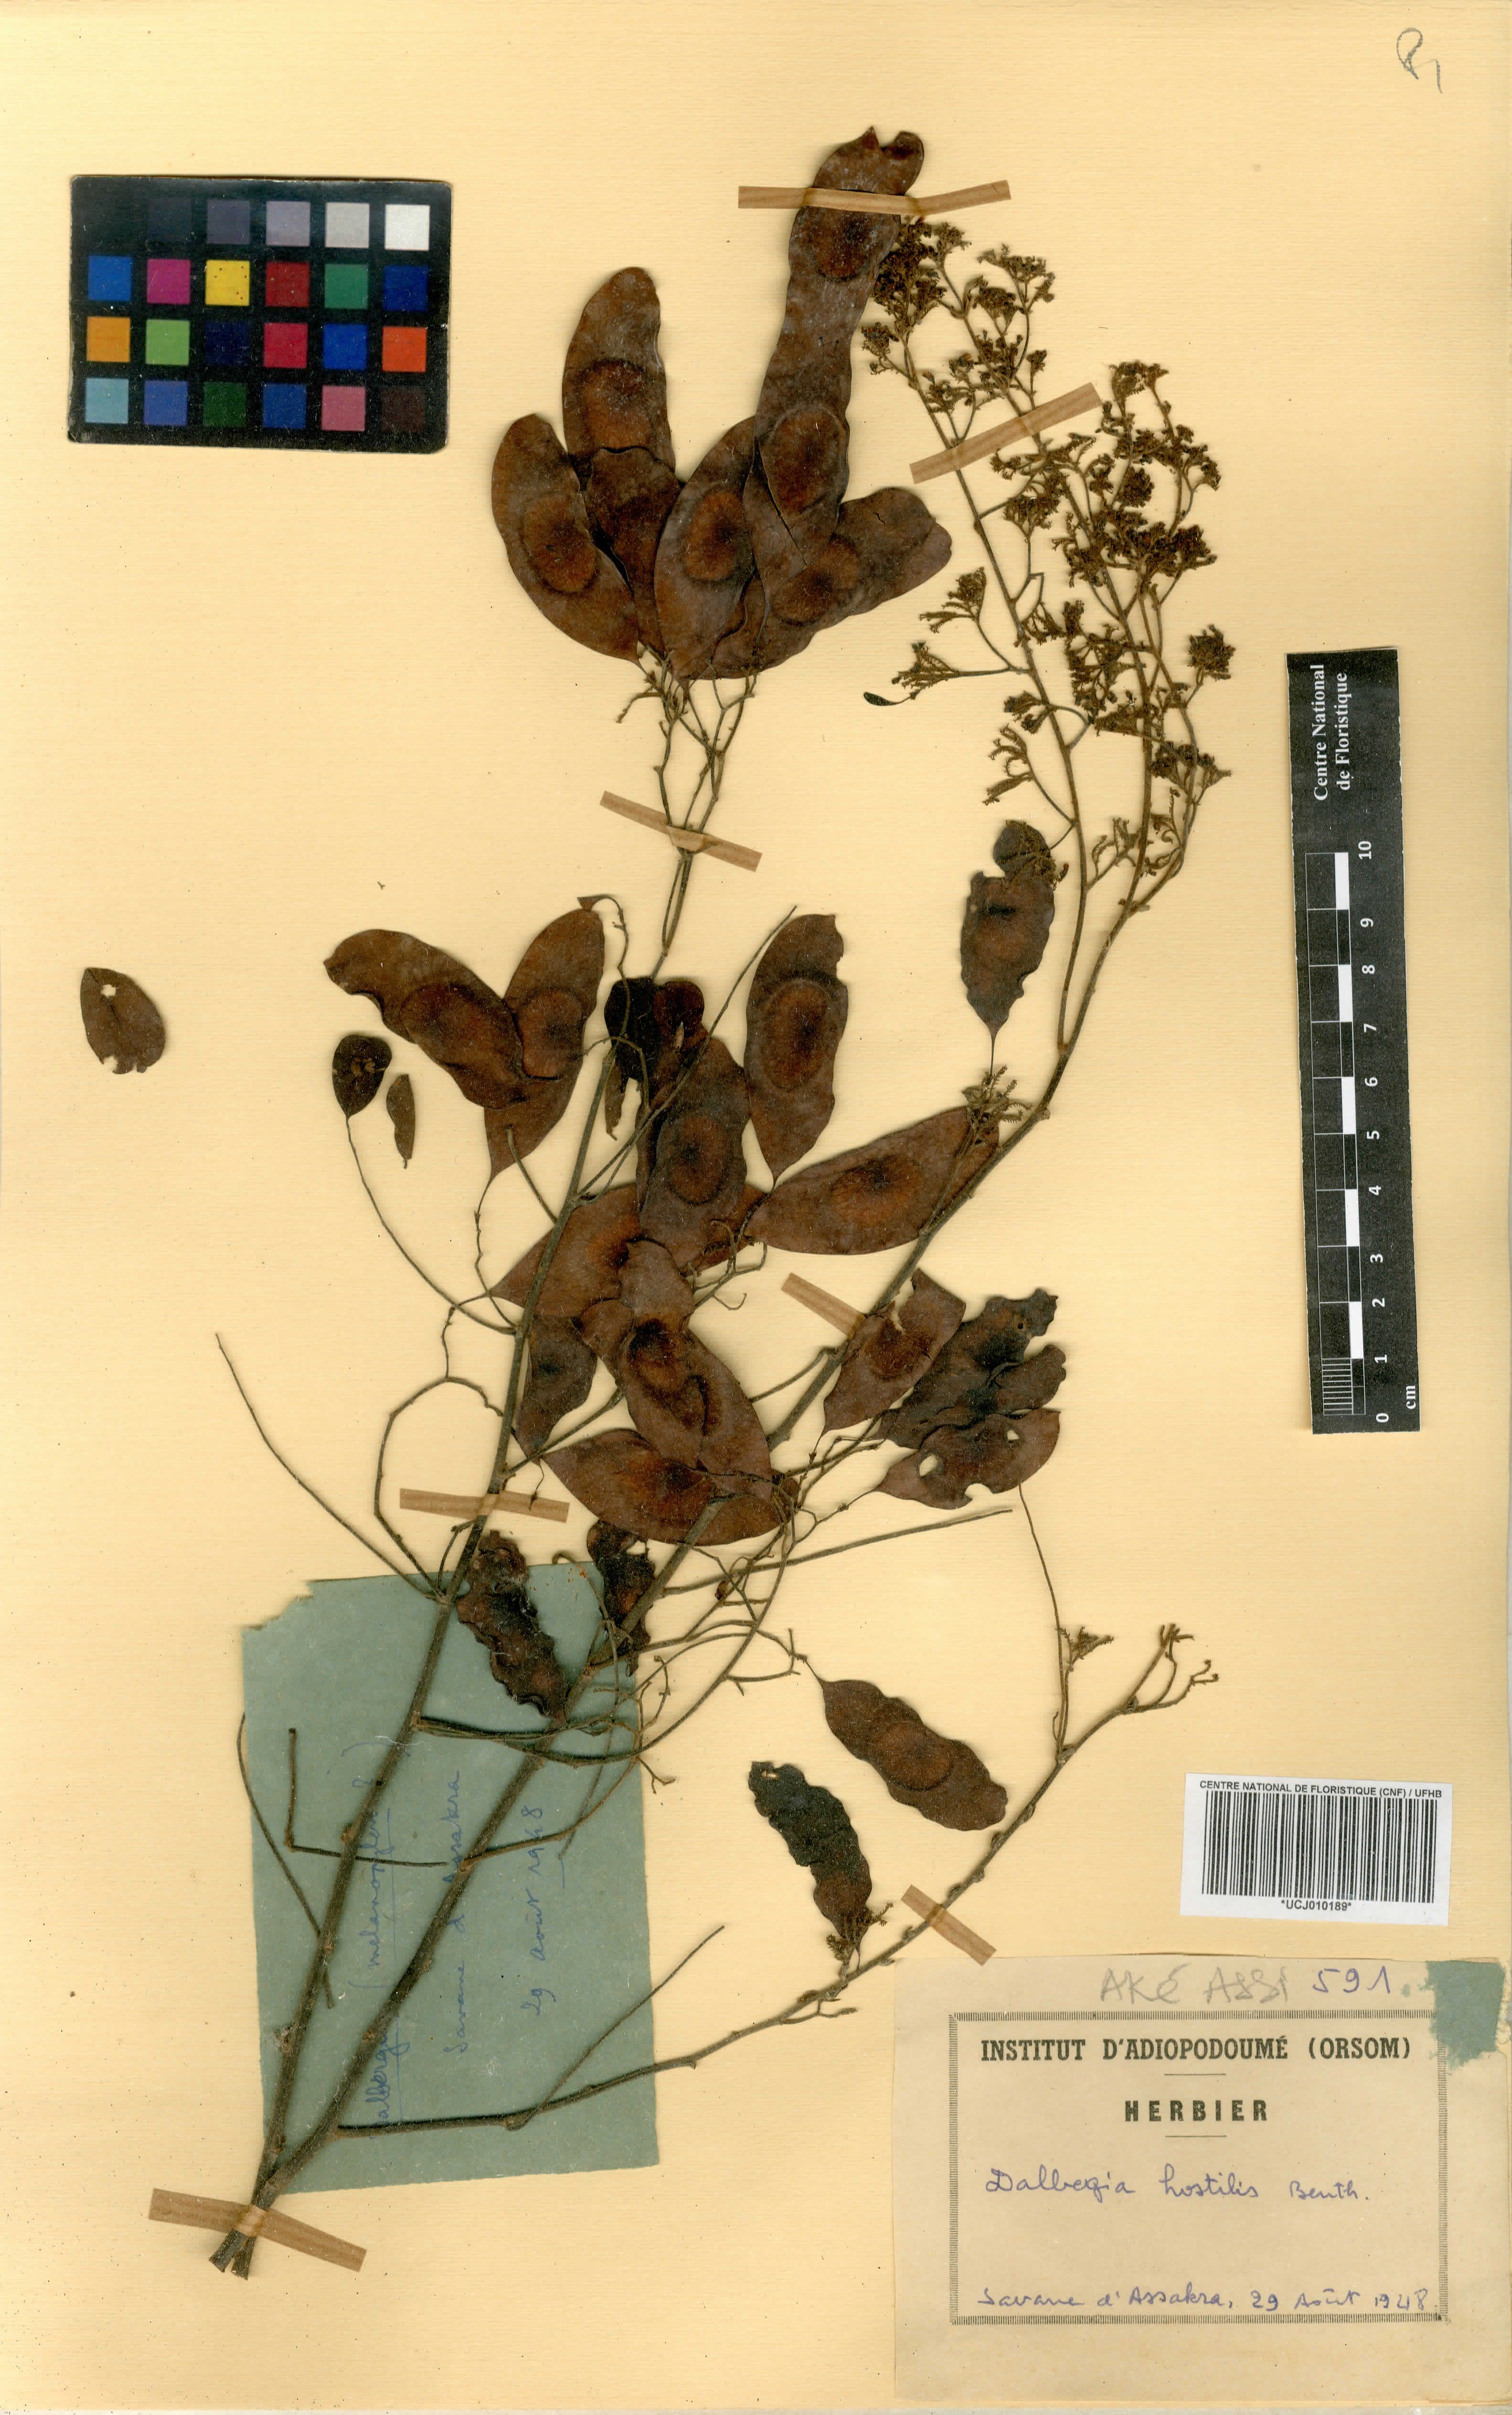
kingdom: Plantae
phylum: Tracheophyta
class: Magnoliopsida
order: Fabales
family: Fabaceae
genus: Dalbergia
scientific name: Dalbergia hostilis
